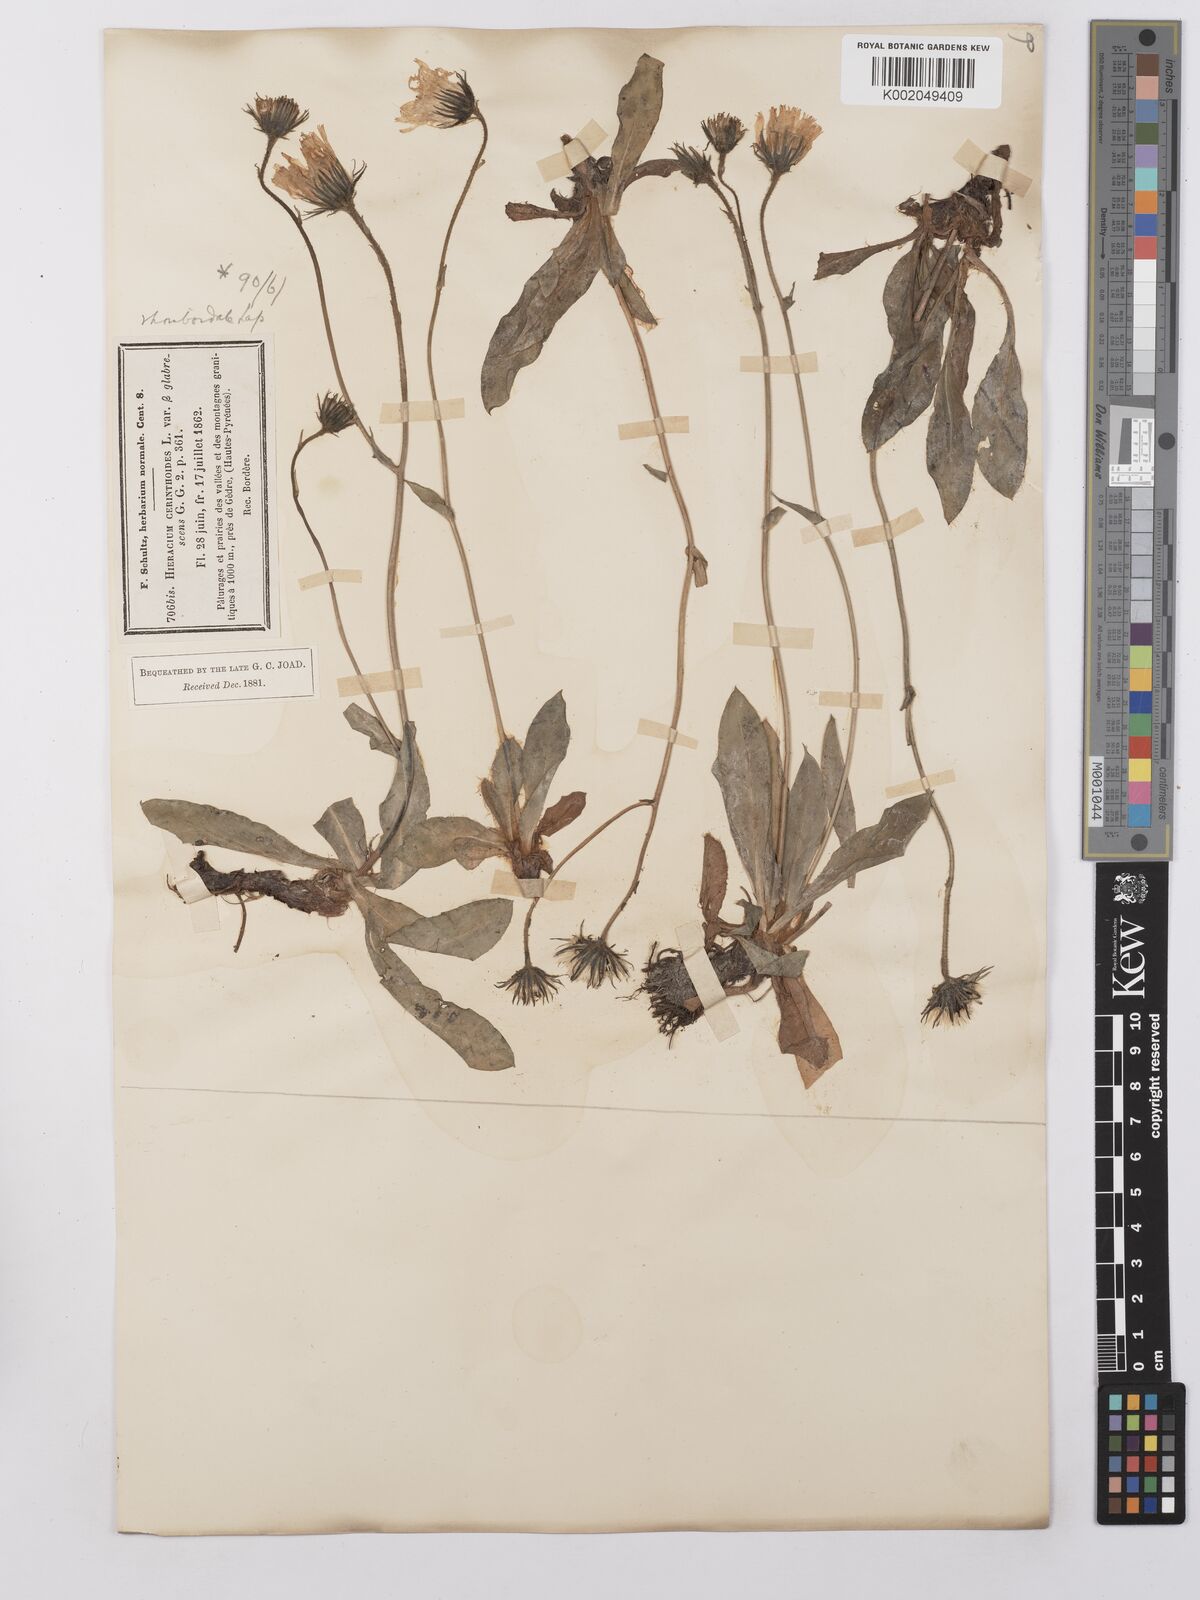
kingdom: Plantae
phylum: Tracheophyta
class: Magnoliopsida
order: Asterales
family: Asteraceae
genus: Hieracium
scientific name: Hieracium cerinthoides
